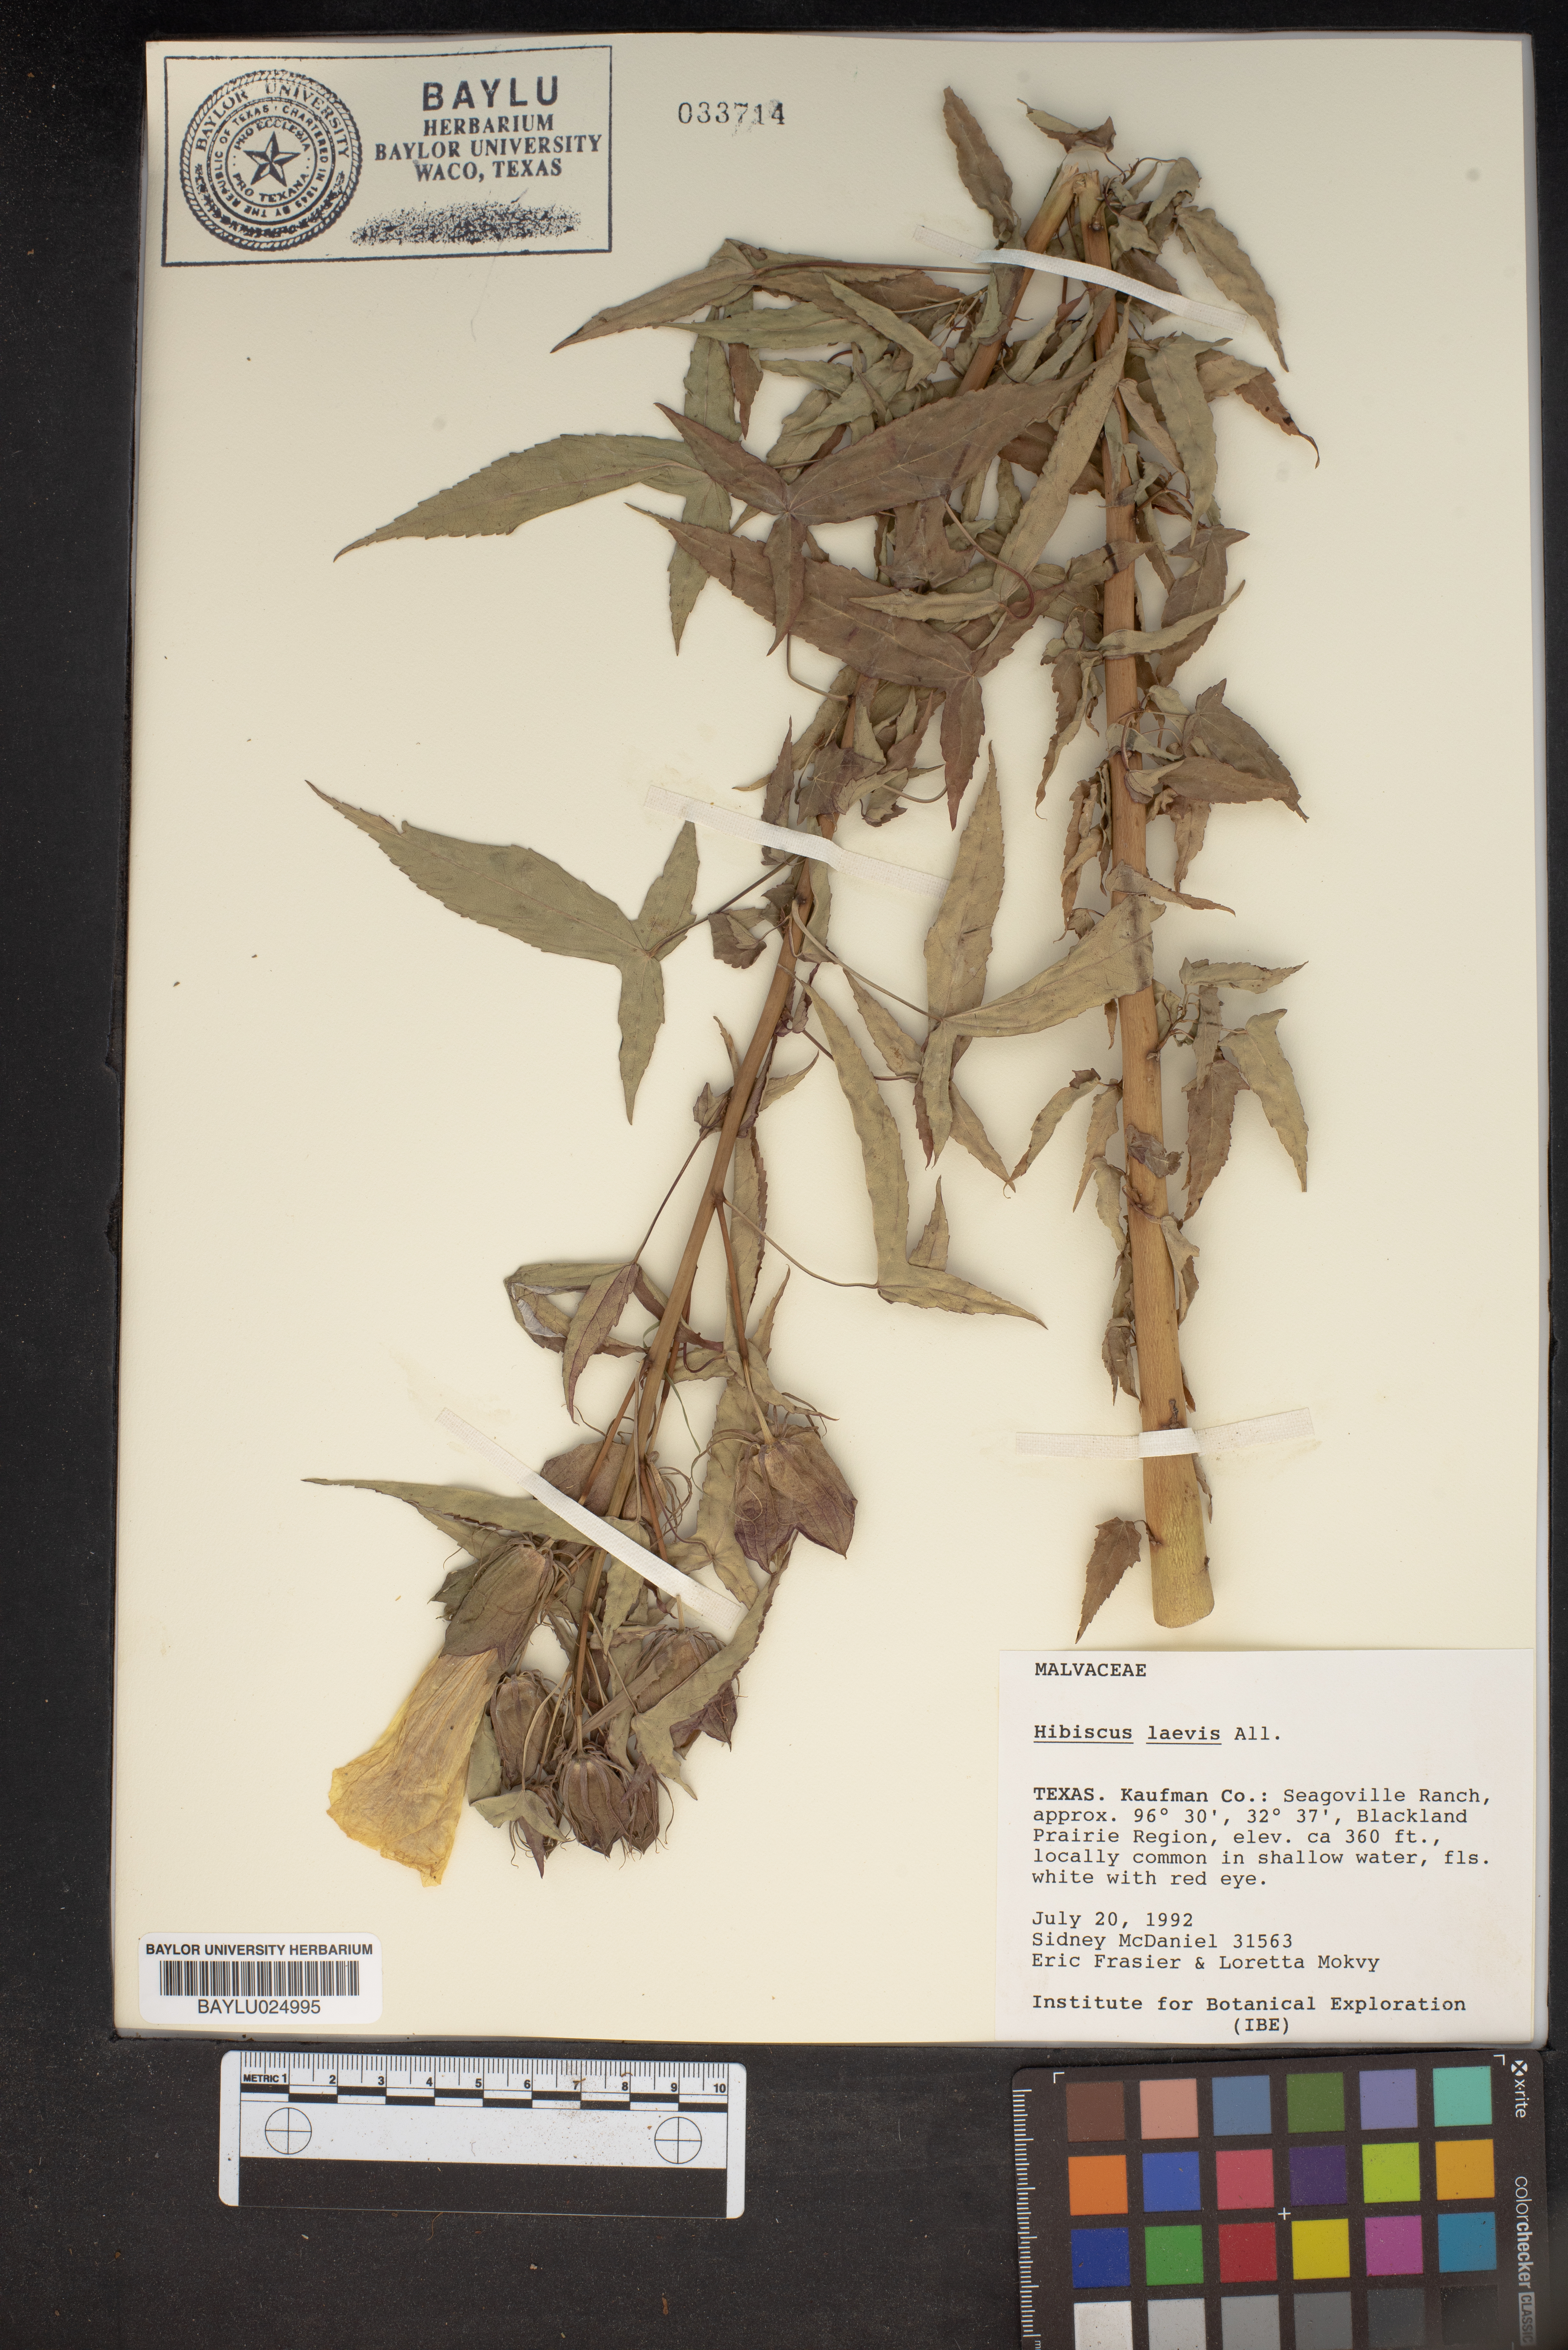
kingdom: Plantae
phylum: Tracheophyta
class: Magnoliopsida
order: Malvales
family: Malvaceae
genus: Hibiscus
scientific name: Hibiscus laevis
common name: Scarlet rose-mallow
